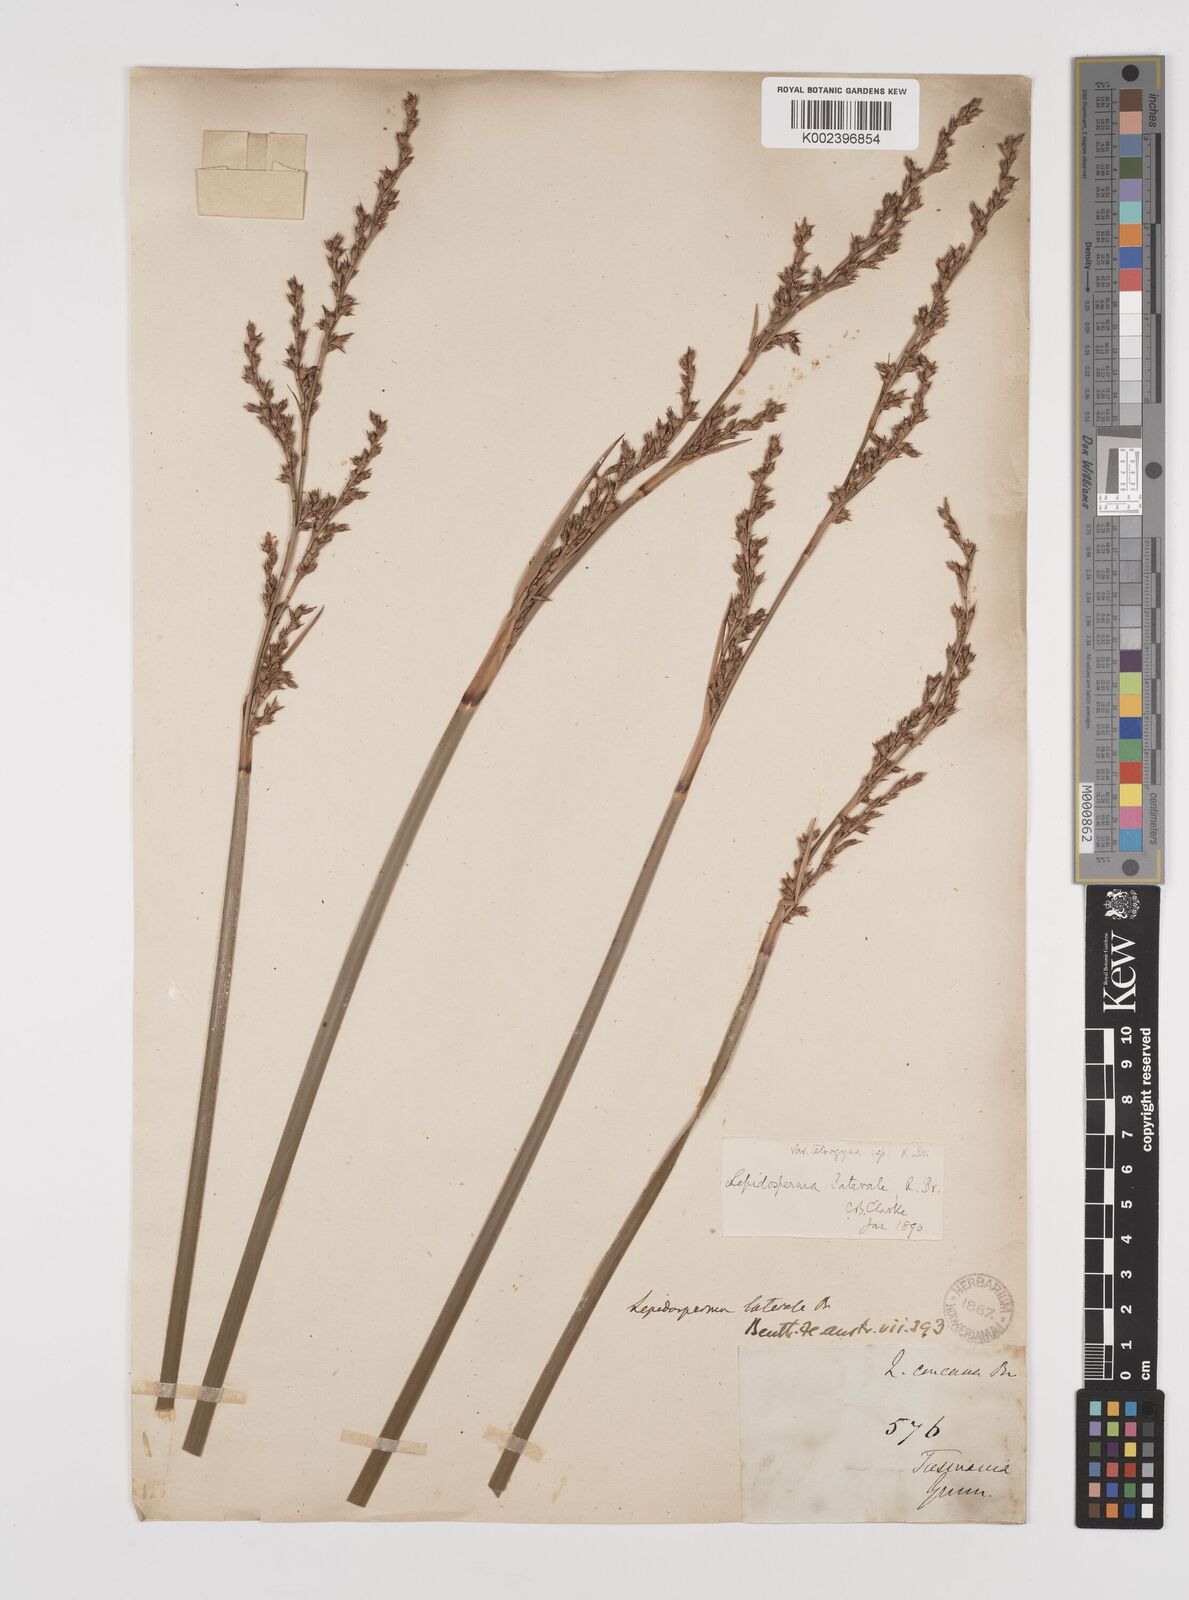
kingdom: Plantae
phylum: Tracheophyta
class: Liliopsida
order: Poales
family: Cyperaceae
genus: Lepidosperma
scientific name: Lepidosperma laterale
